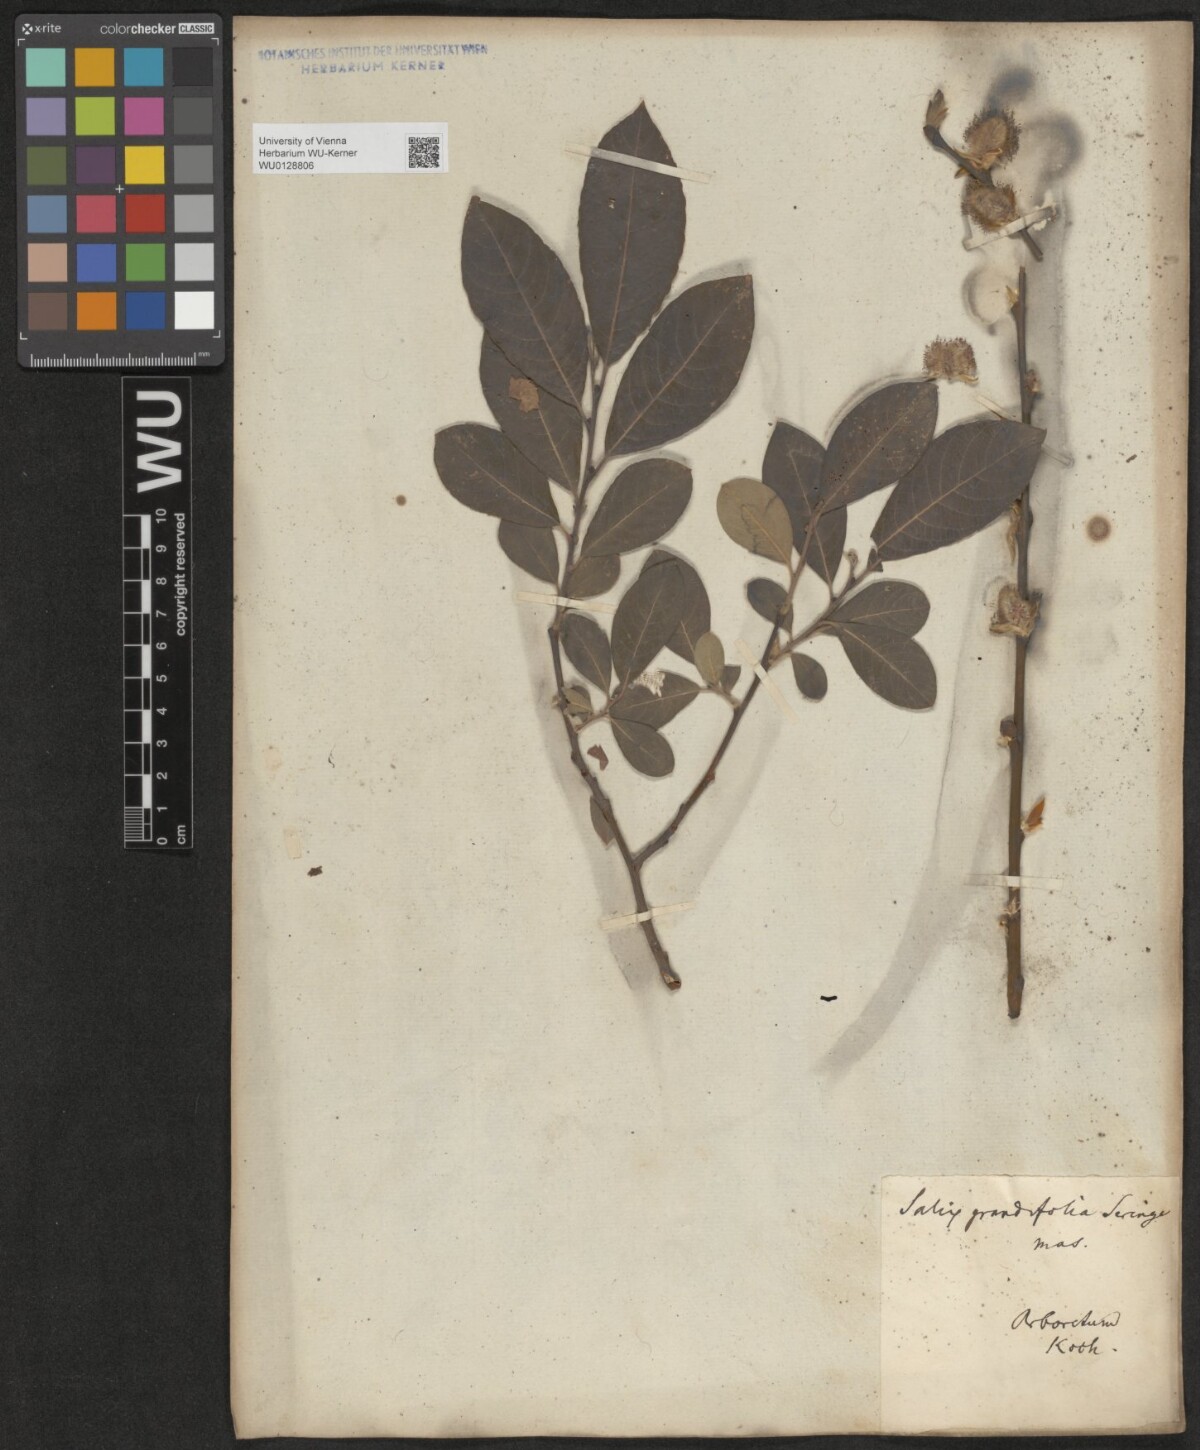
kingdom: Plantae
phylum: Tracheophyta
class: Magnoliopsida
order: Malpighiales
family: Salicaceae
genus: Salix
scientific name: Salix appendiculata
